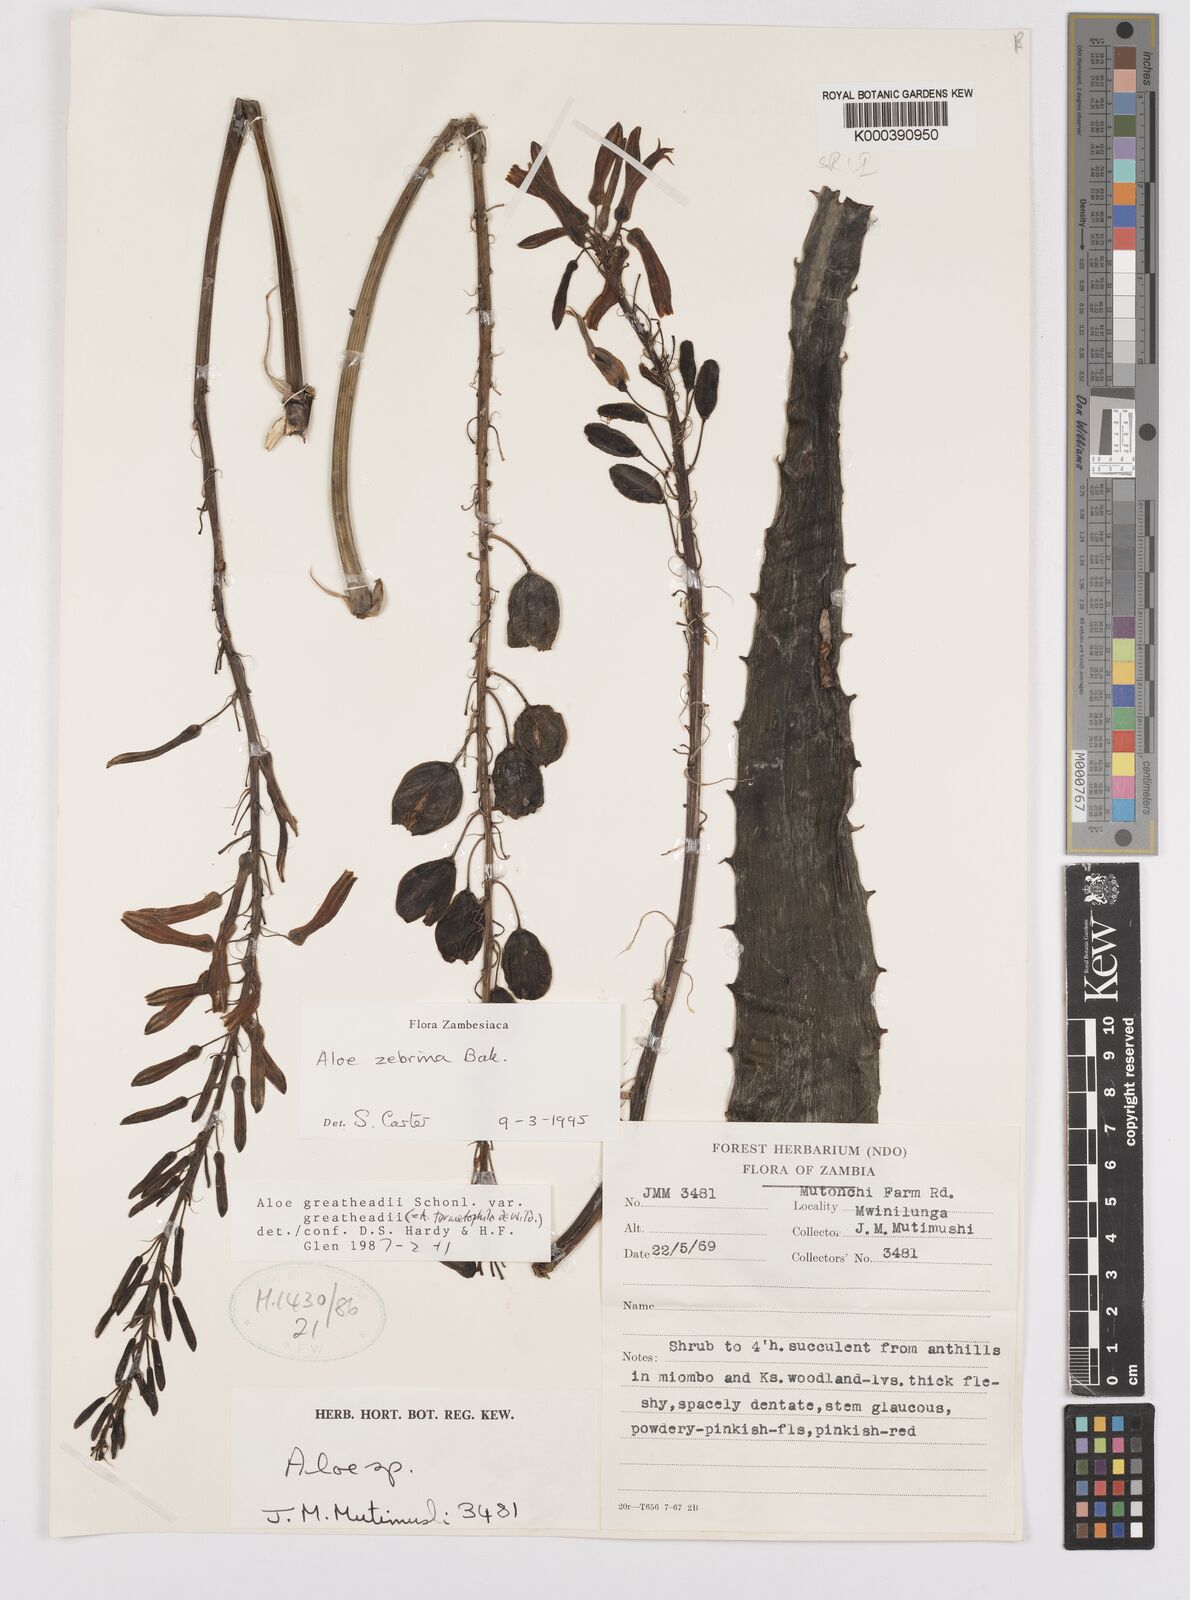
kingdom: Plantae
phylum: Tracheophyta
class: Liliopsida
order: Asparagales
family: Asphodelaceae
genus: Aloe
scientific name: Aloe zebrina
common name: Zebra-leaf aloe
